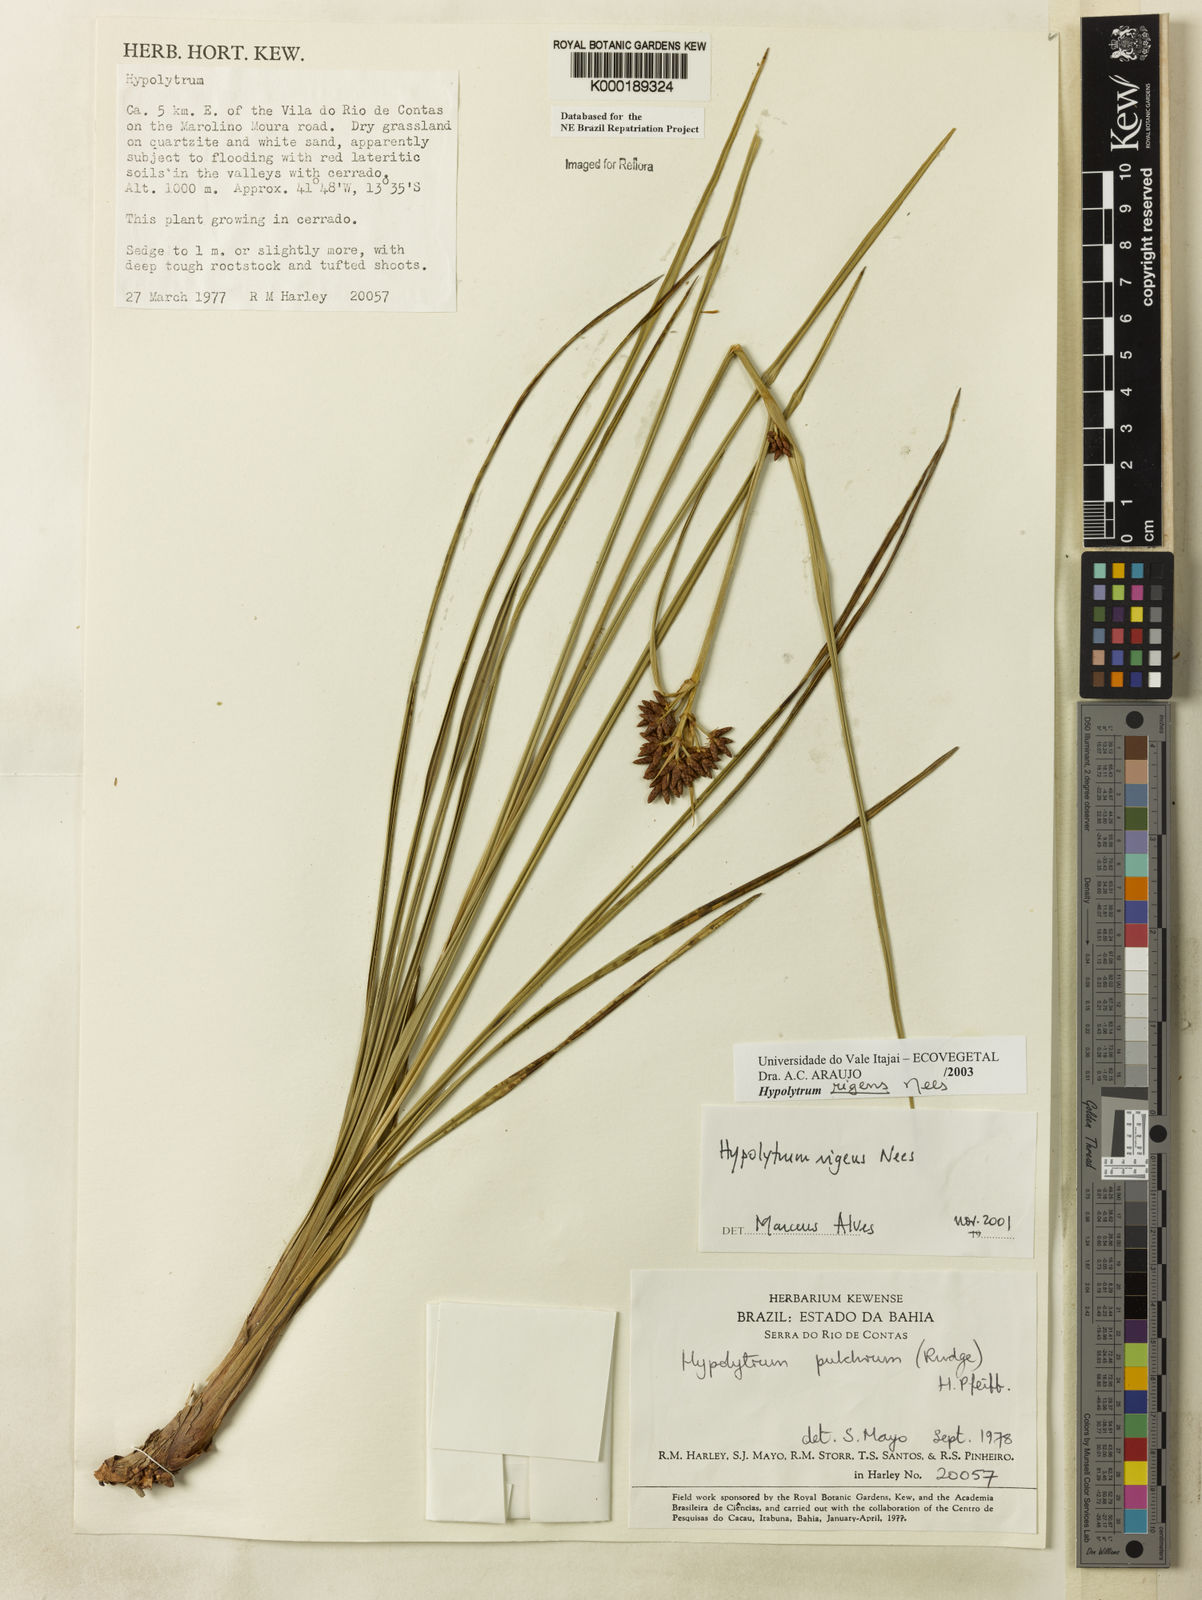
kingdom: Plantae
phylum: Tracheophyta
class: Liliopsida
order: Poales
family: Cyperaceae
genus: Hypolytrum
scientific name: Hypolytrum rigens
